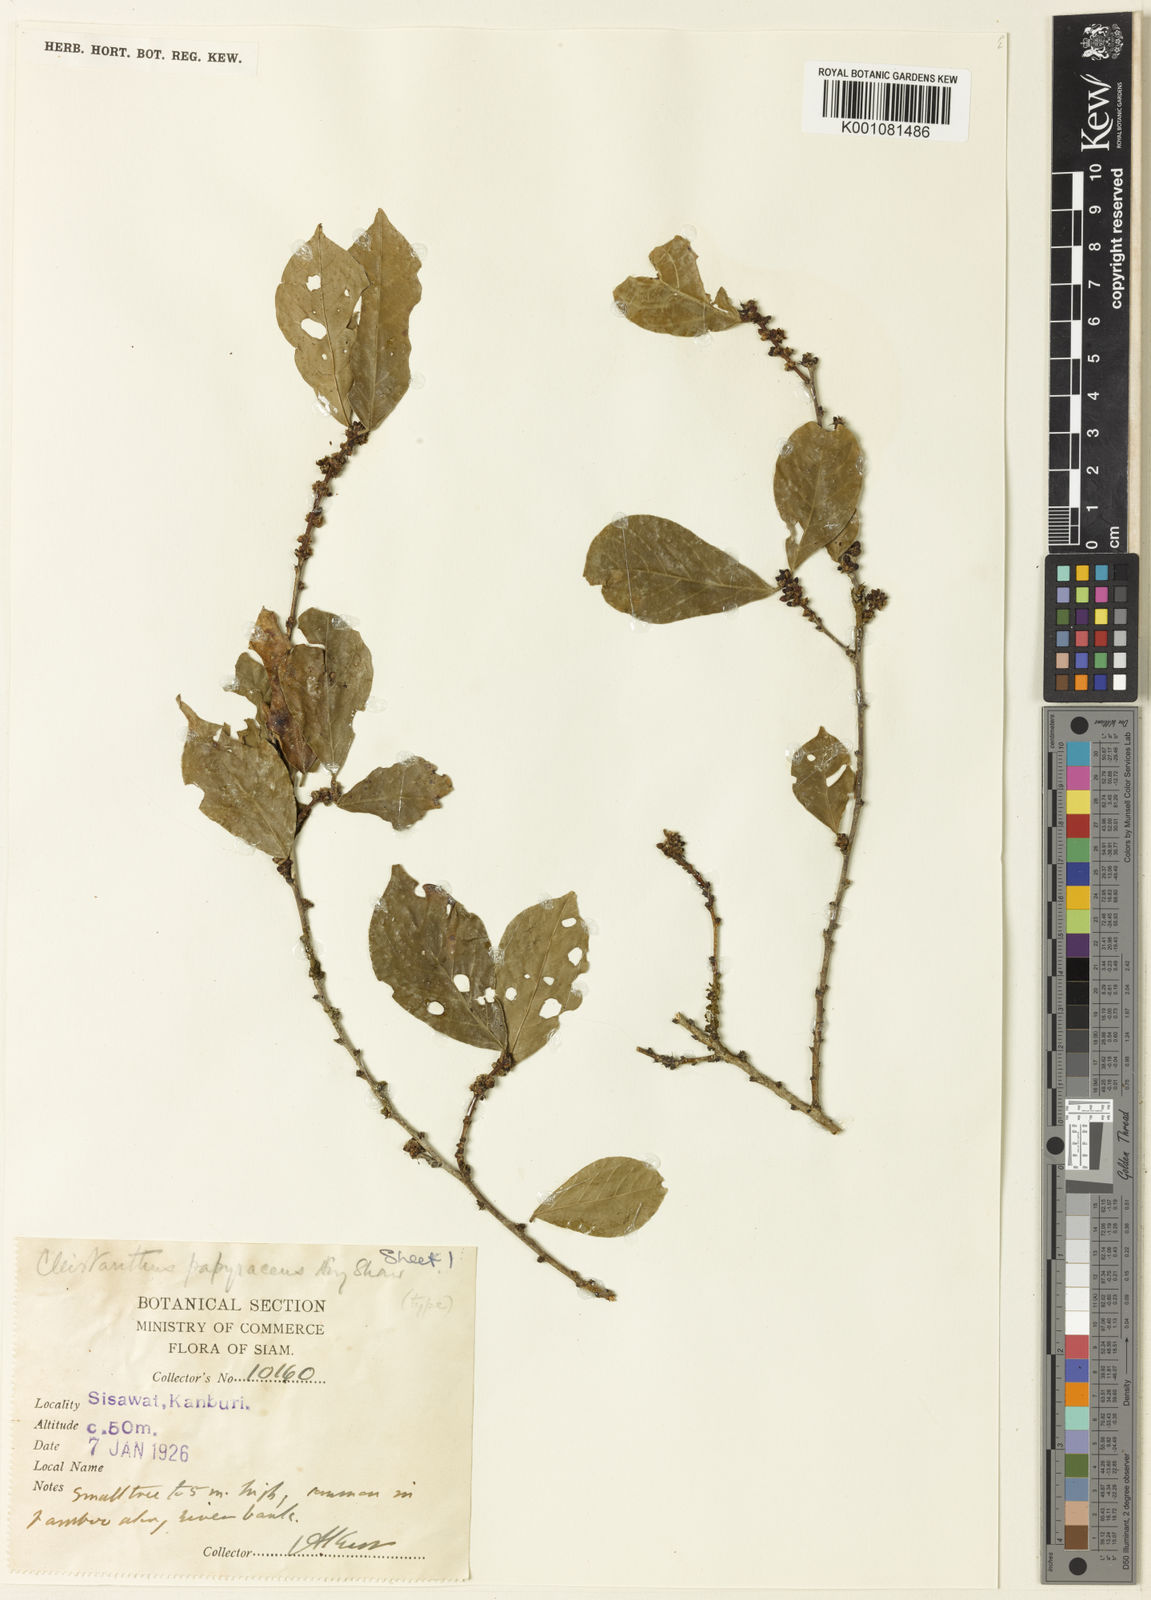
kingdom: Plantae
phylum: Tracheophyta
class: Magnoliopsida
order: Malpighiales
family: Phyllanthaceae
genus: Cleistanthus
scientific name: Cleistanthus papyraceus
